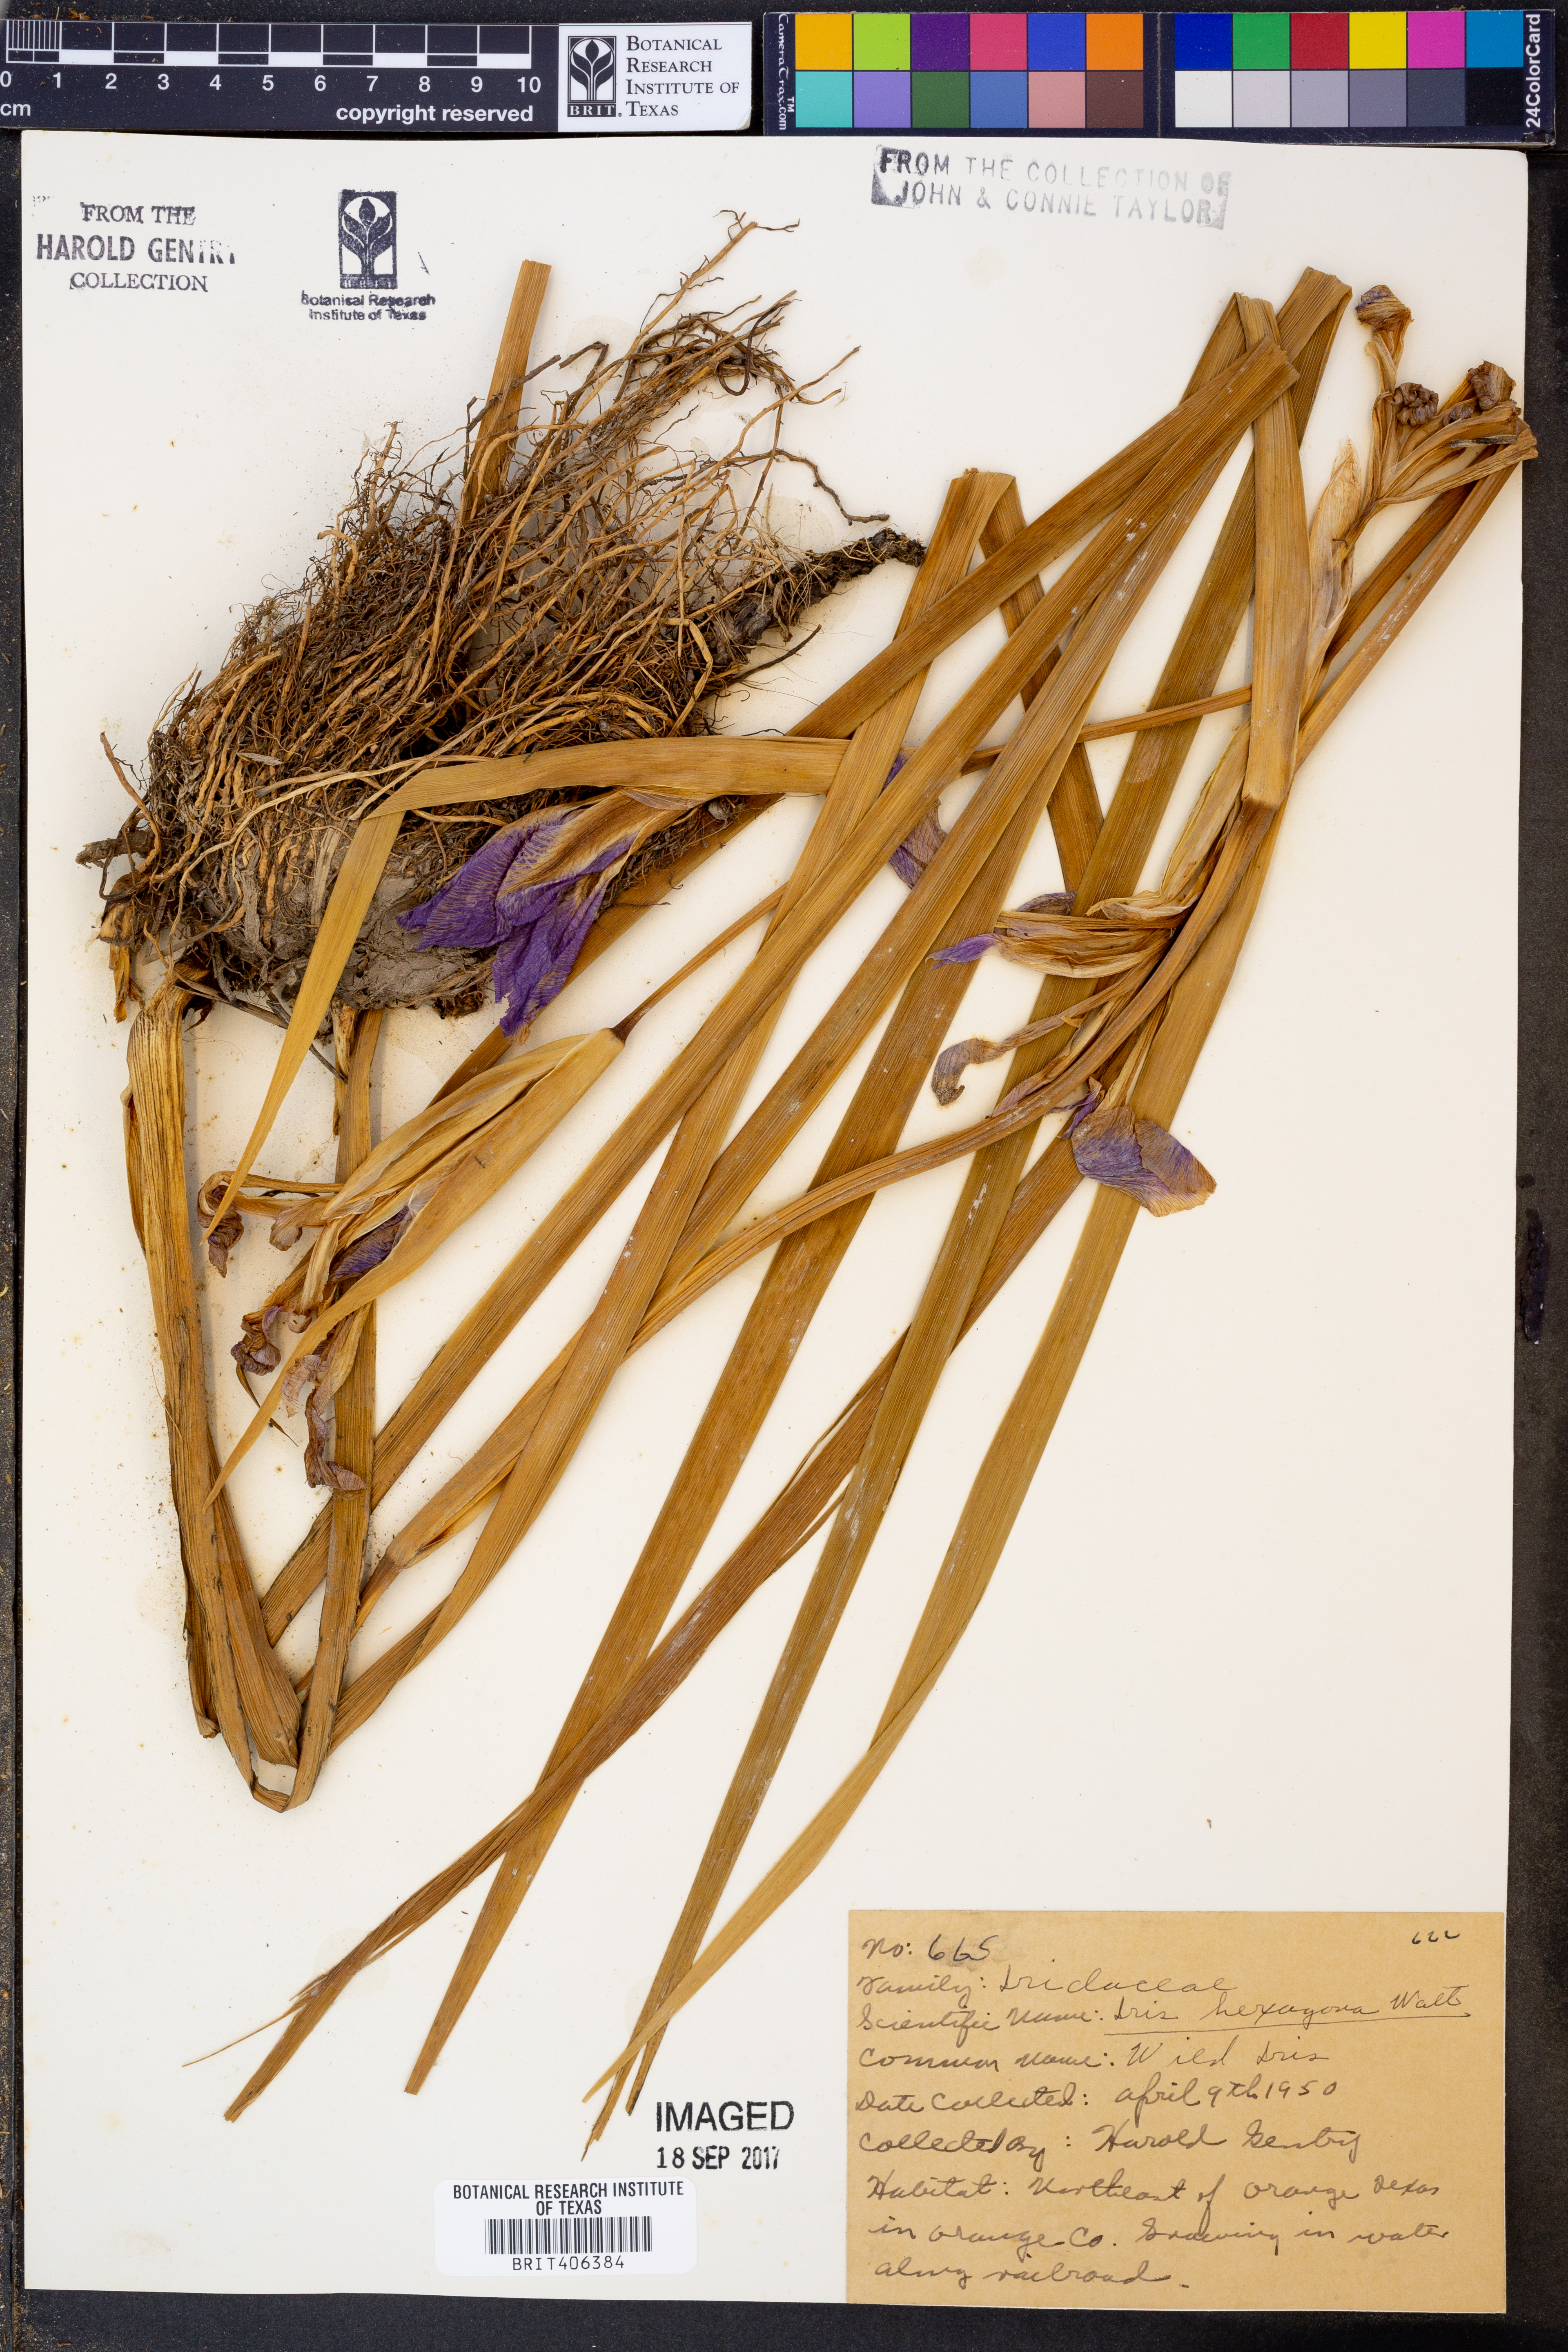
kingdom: Plantae
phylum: Tracheophyta
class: Liliopsida
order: Asparagales
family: Iridaceae
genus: Iris
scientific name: Iris hexagona
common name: Carolina iris
